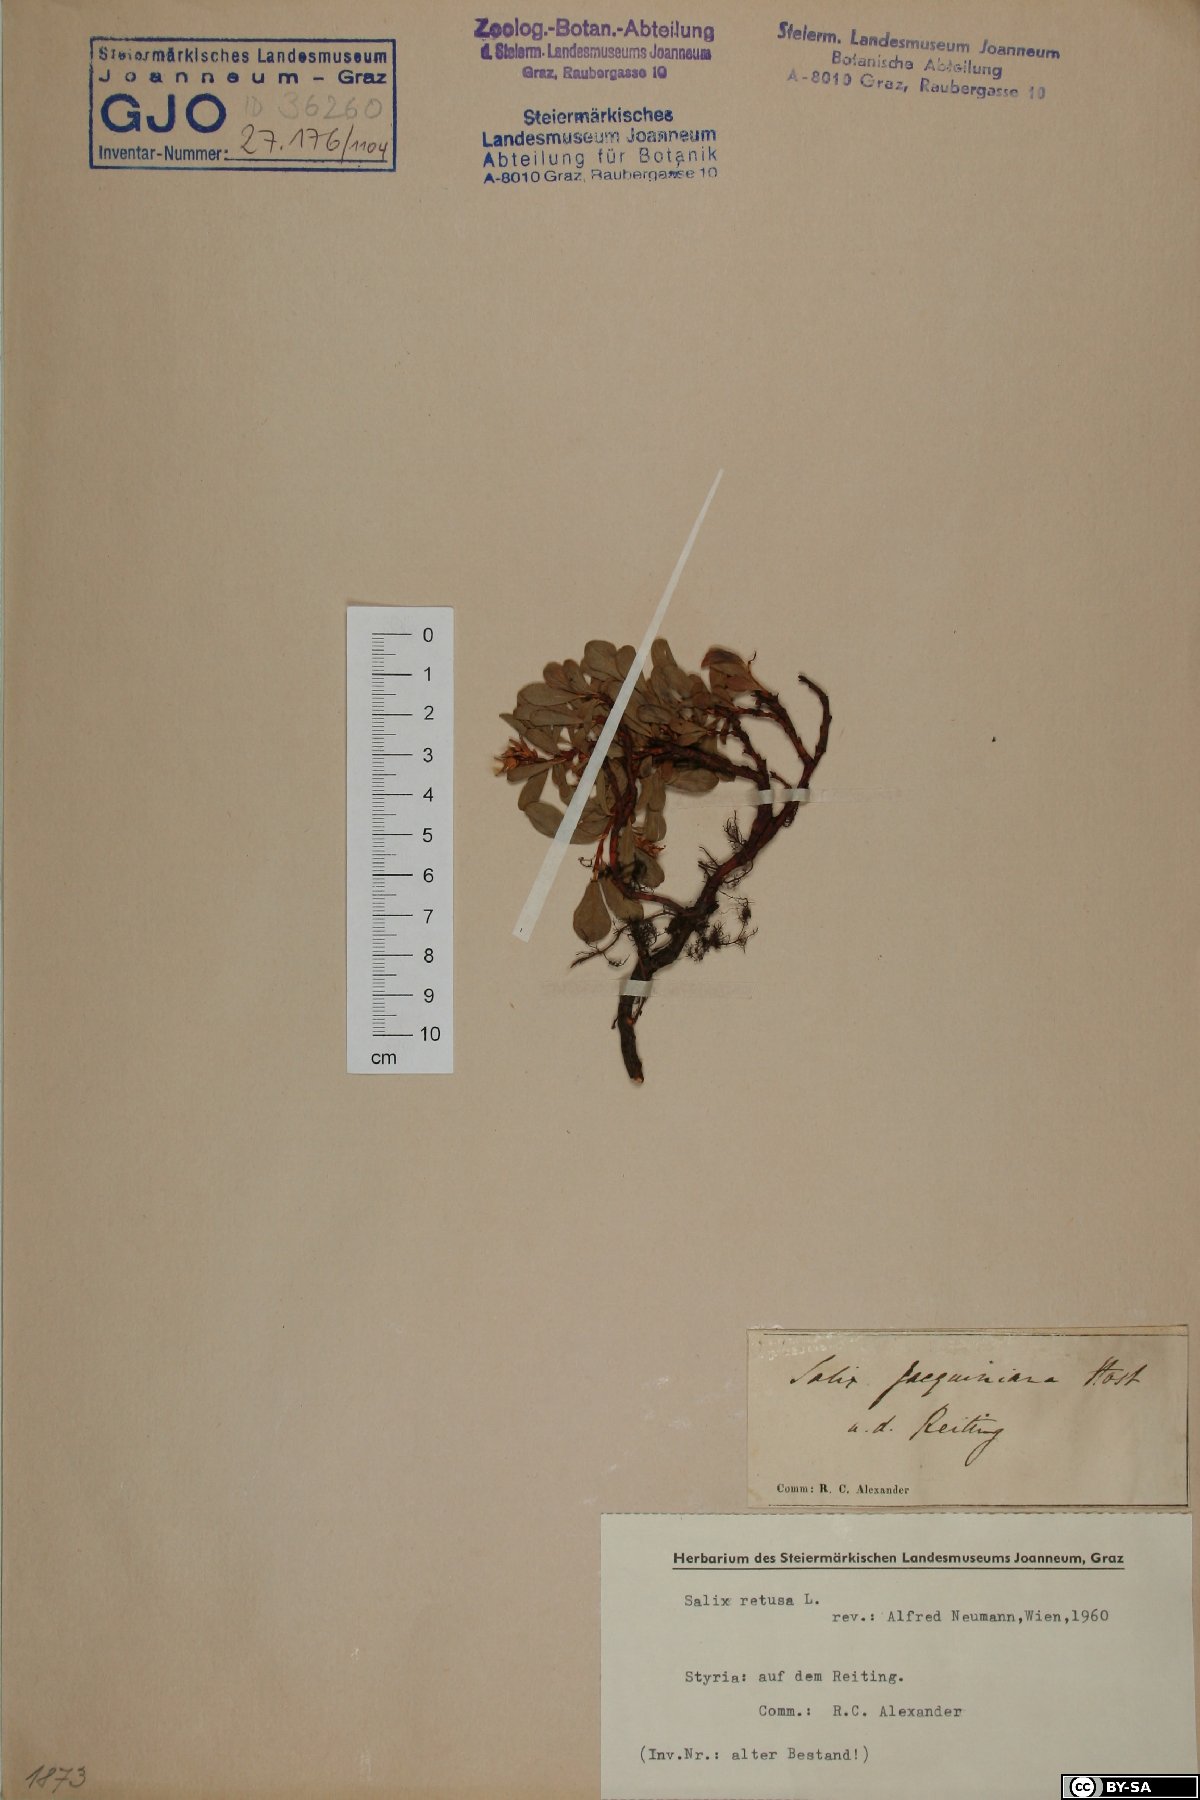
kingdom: Plantae
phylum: Tracheophyta
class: Magnoliopsida
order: Malpighiales
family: Salicaceae
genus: Salix
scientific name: Salix retusa
